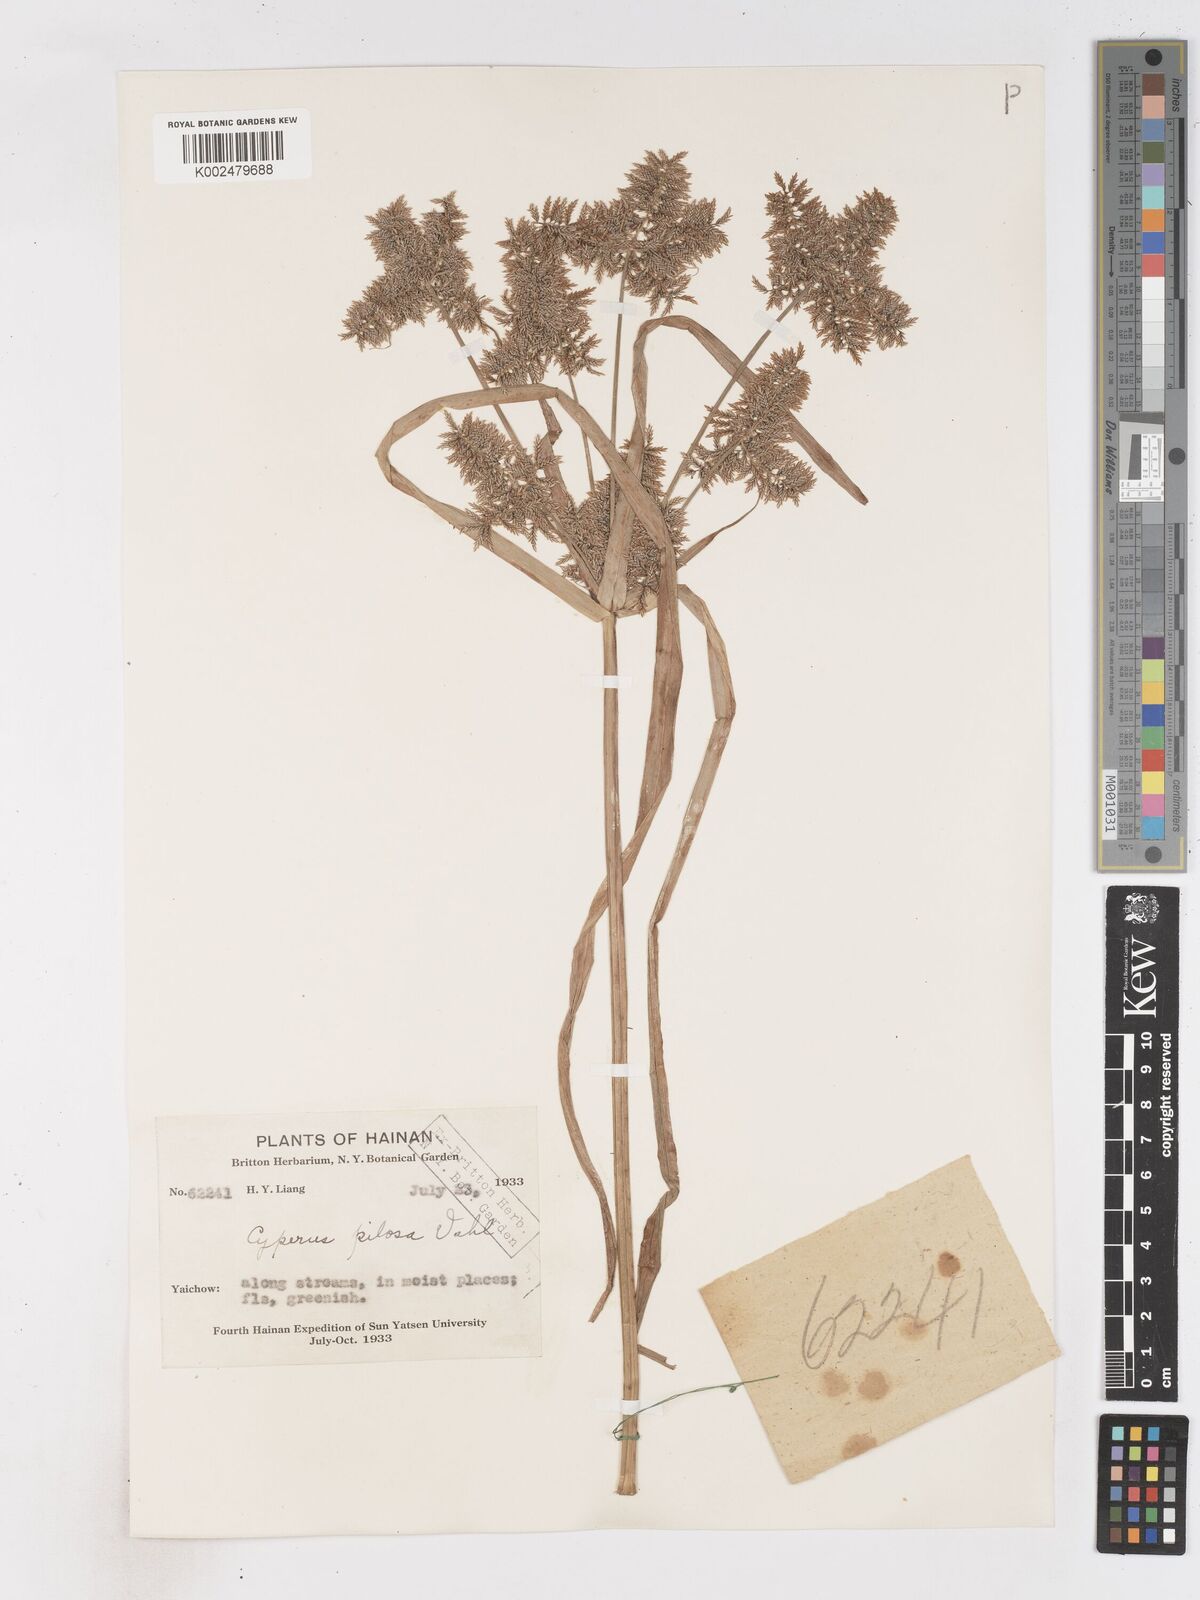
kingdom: Plantae
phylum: Tracheophyta
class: Liliopsida
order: Poales
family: Cyperaceae
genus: Cyperus
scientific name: Cyperus pilosus
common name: Fuzzy flatsedge
